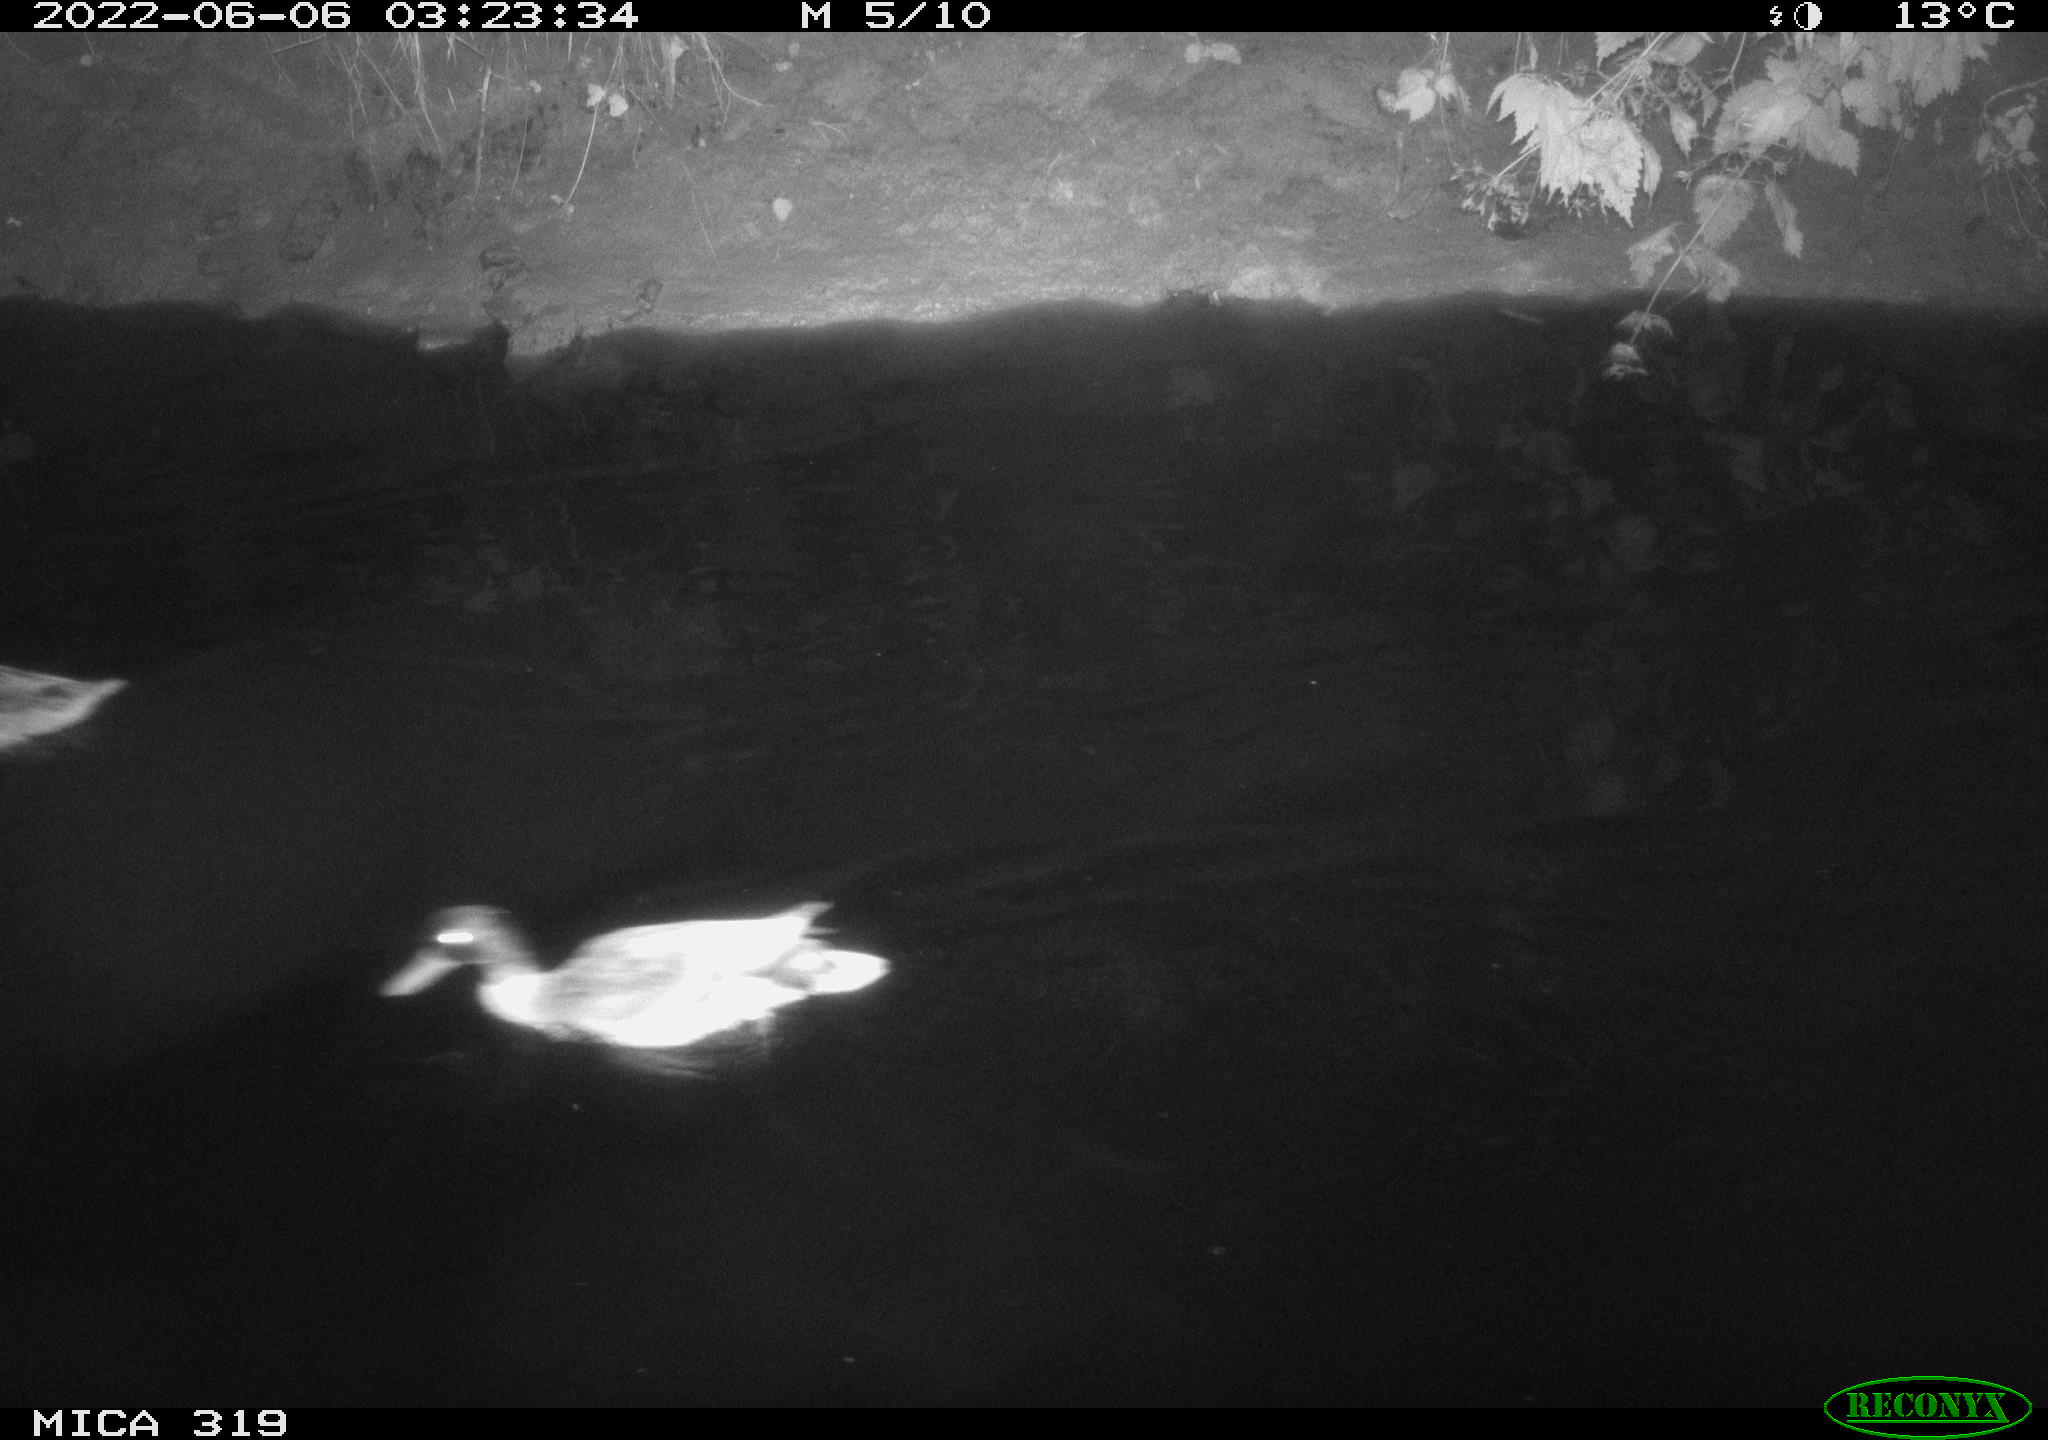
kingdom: Animalia
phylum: Chordata
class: Aves
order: Anseriformes
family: Anatidae
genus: Anas
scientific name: Anas
